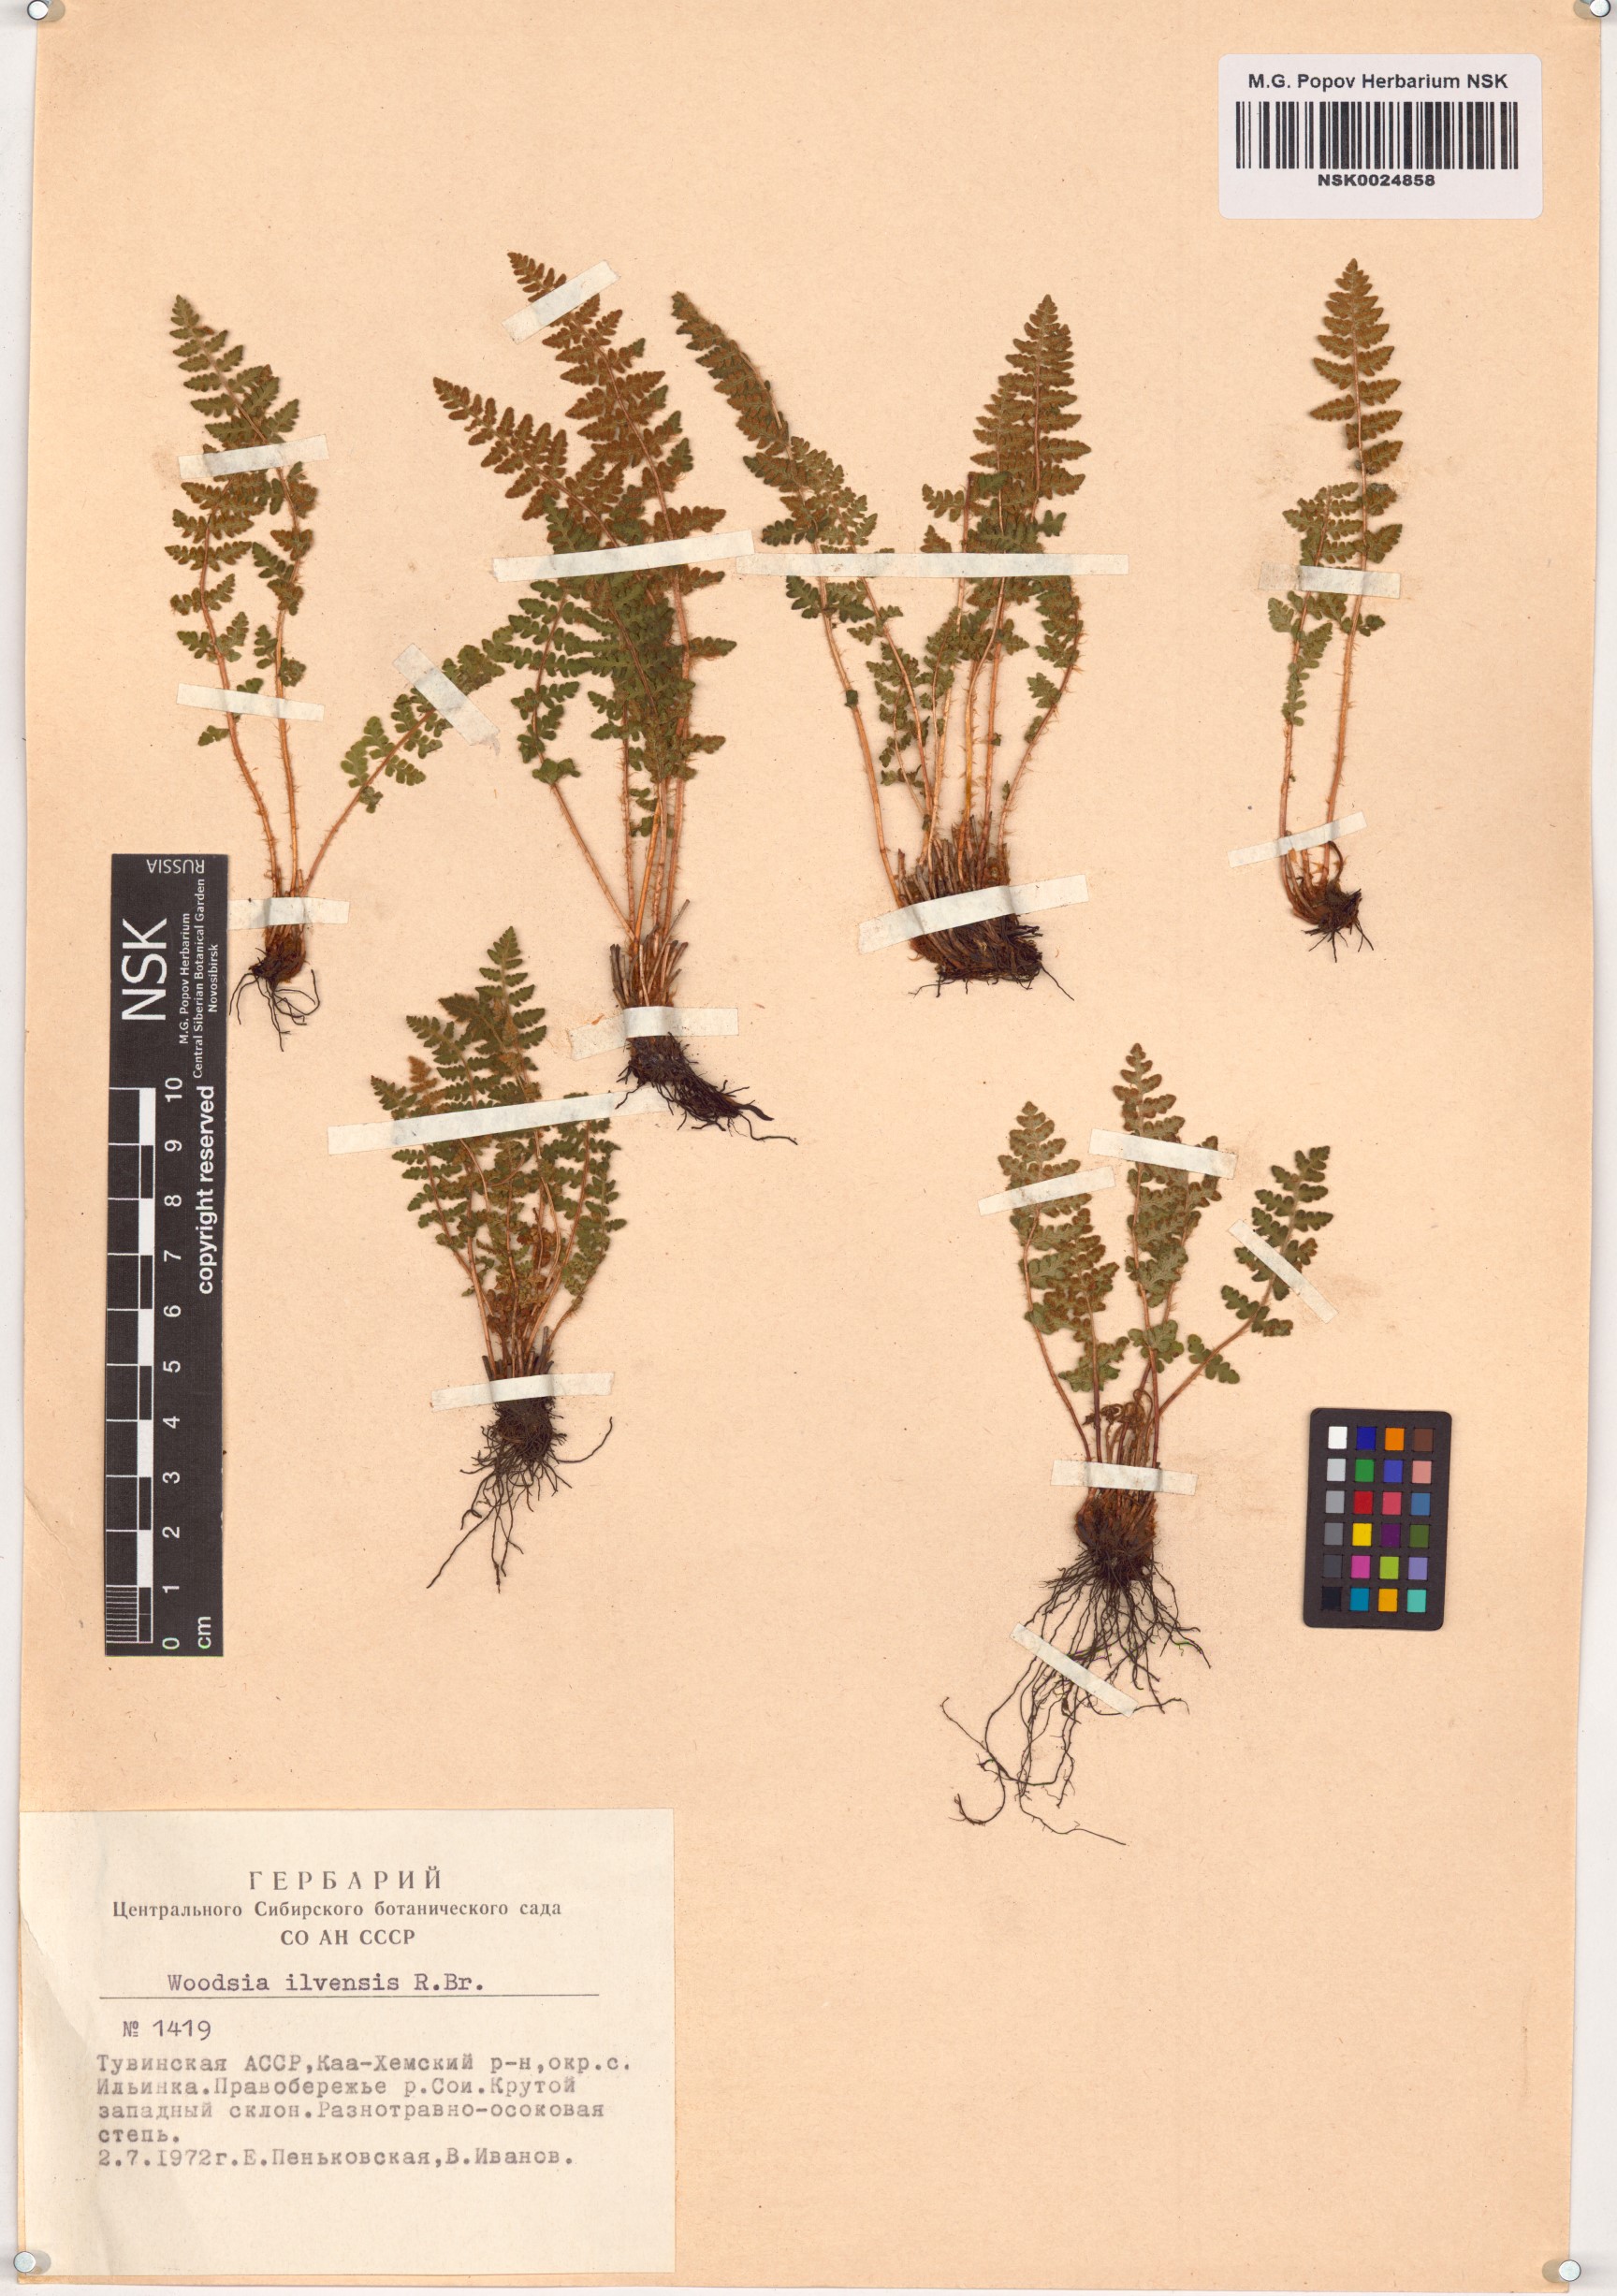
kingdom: Plantae
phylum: Tracheophyta
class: Polypodiopsida
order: Polypodiales
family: Woodsiaceae
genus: Woodsia
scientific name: Woodsia ilvensis
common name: Fragrant woodsia
